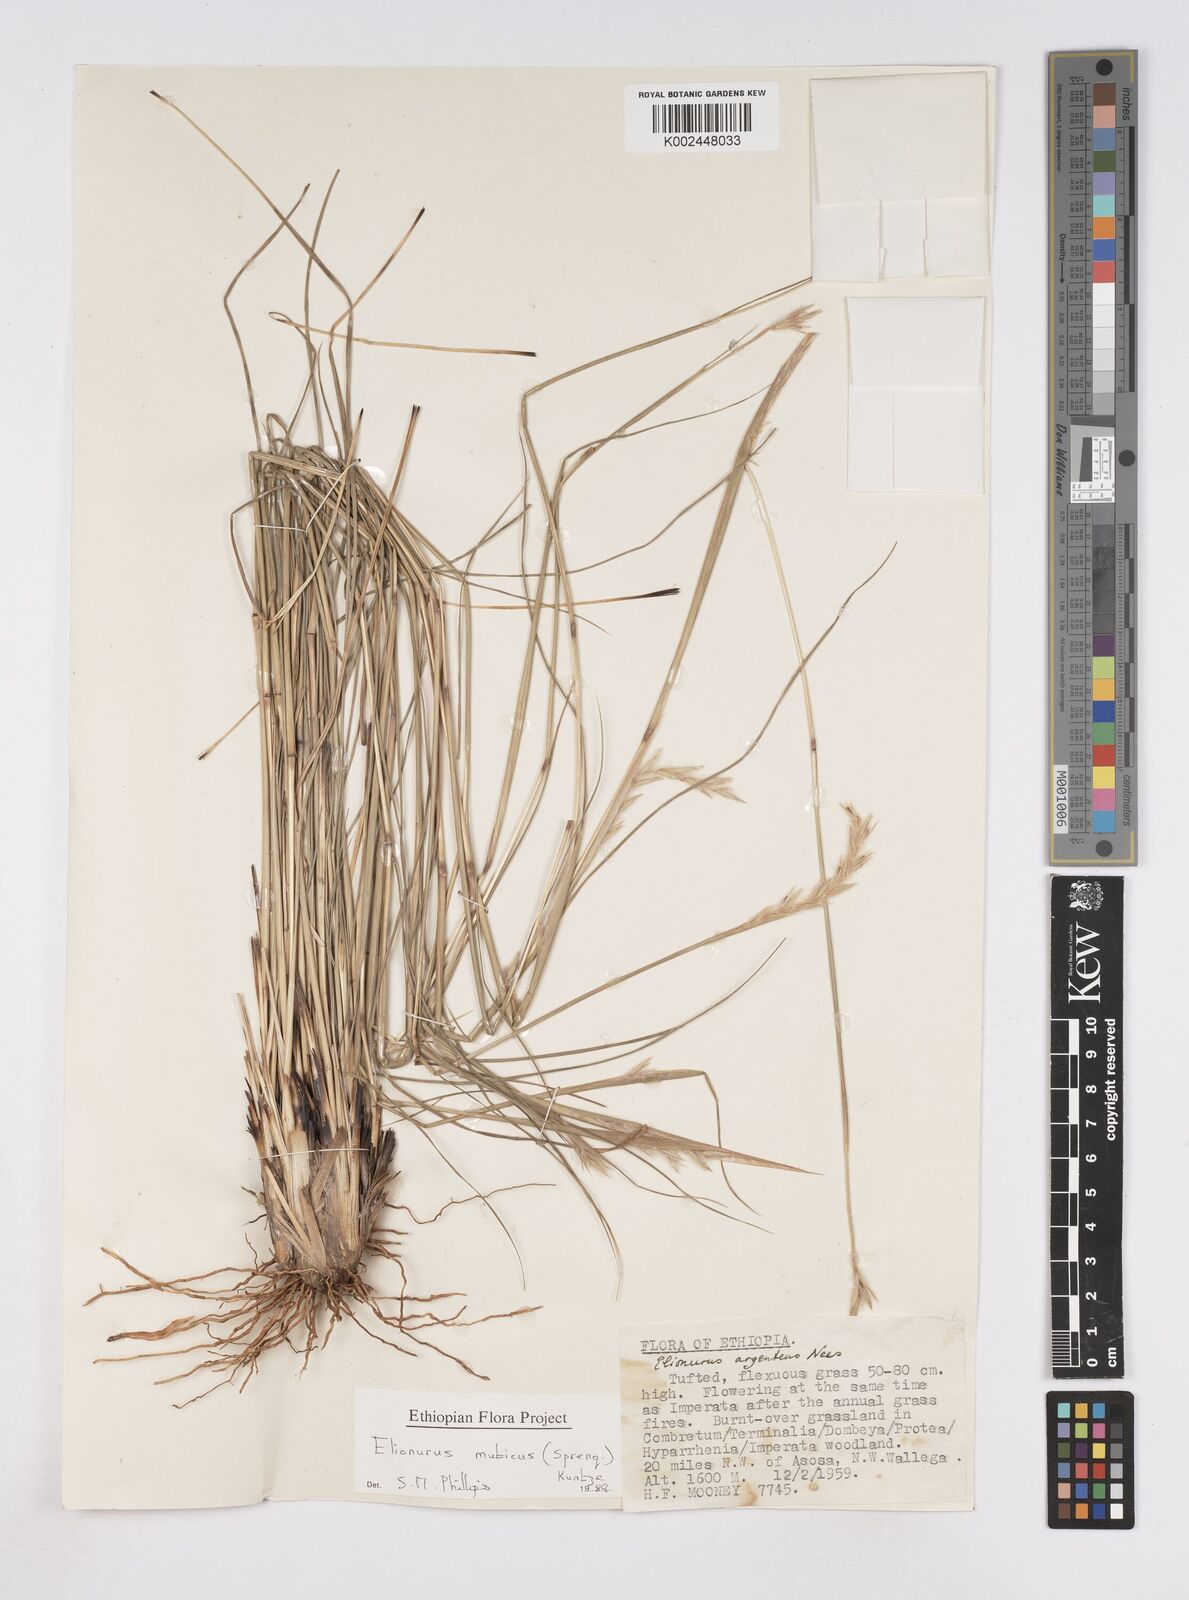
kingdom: Plantae
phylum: Tracheophyta
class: Liliopsida
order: Poales
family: Poaceae
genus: Elionurus
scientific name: Elionurus muticus
